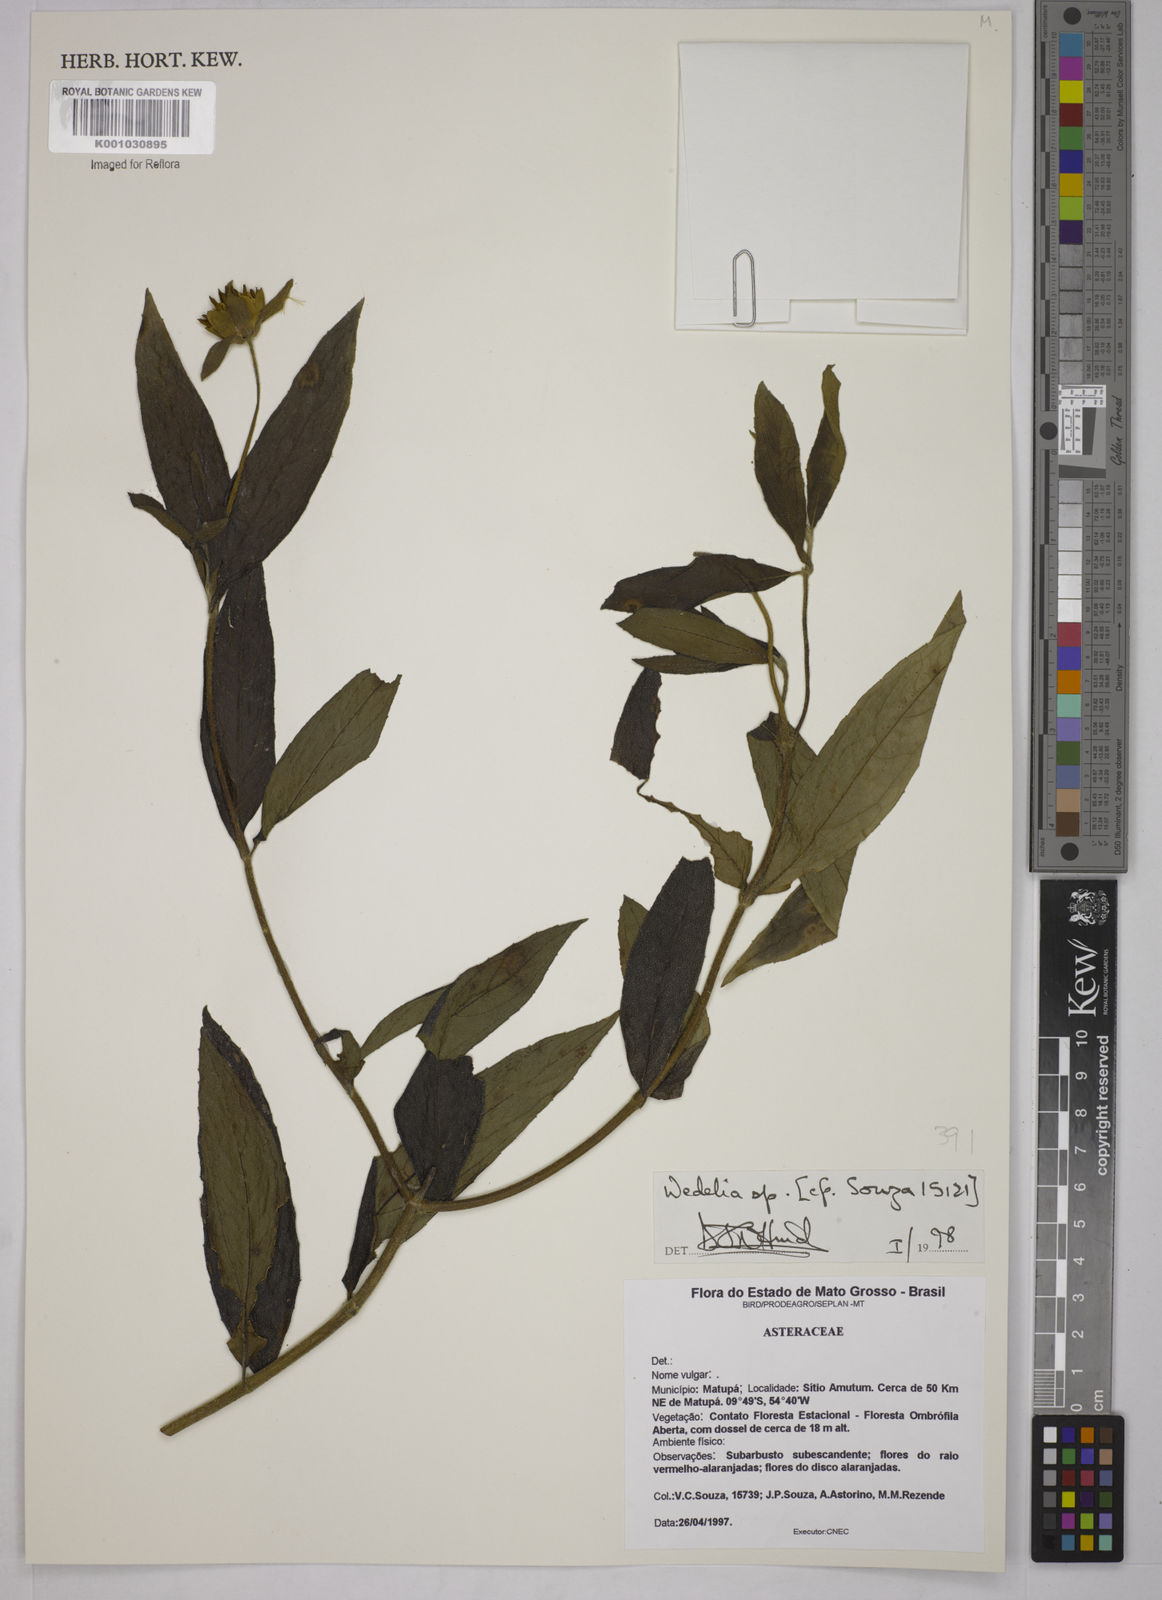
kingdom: Plantae
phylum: Tracheophyta
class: Magnoliopsida
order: Asterales
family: Asteraceae
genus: Wedelia
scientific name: Wedelia
